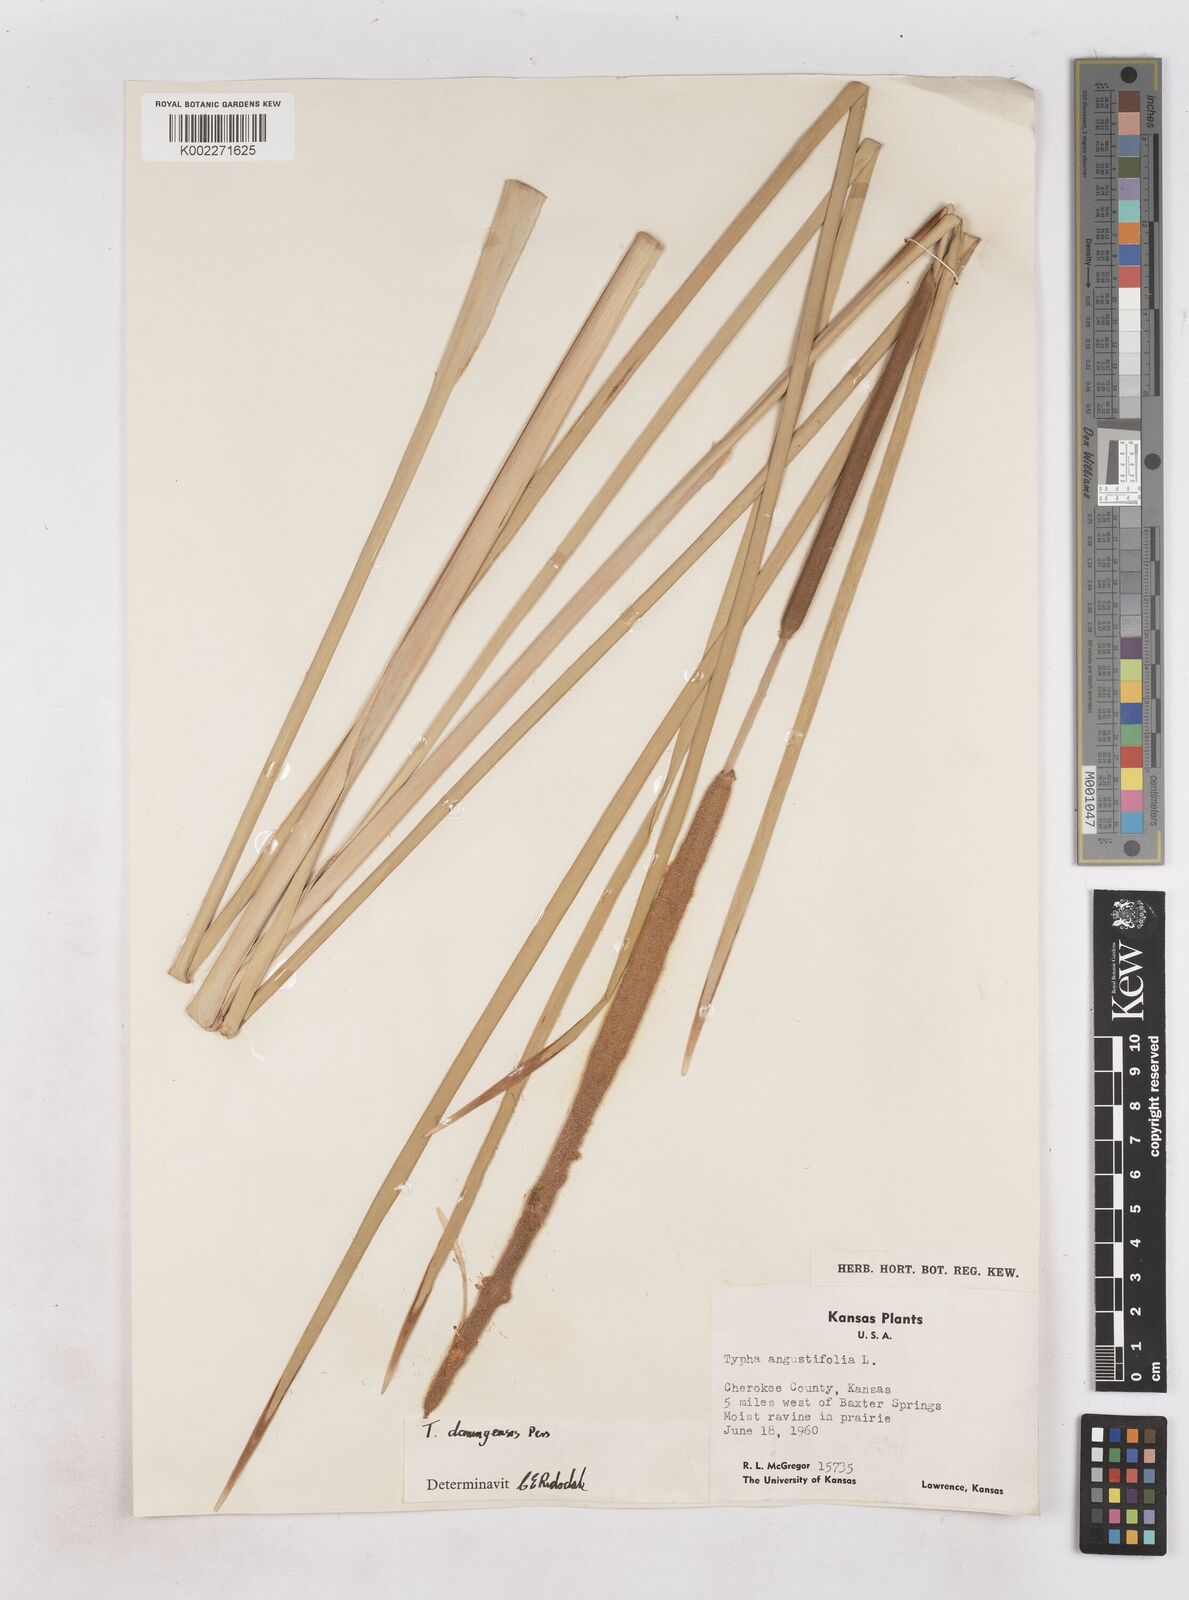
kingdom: Plantae
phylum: Tracheophyta
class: Liliopsida
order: Poales
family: Typhaceae
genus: Typha
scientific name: Typha domingensis
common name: Southern cattail
